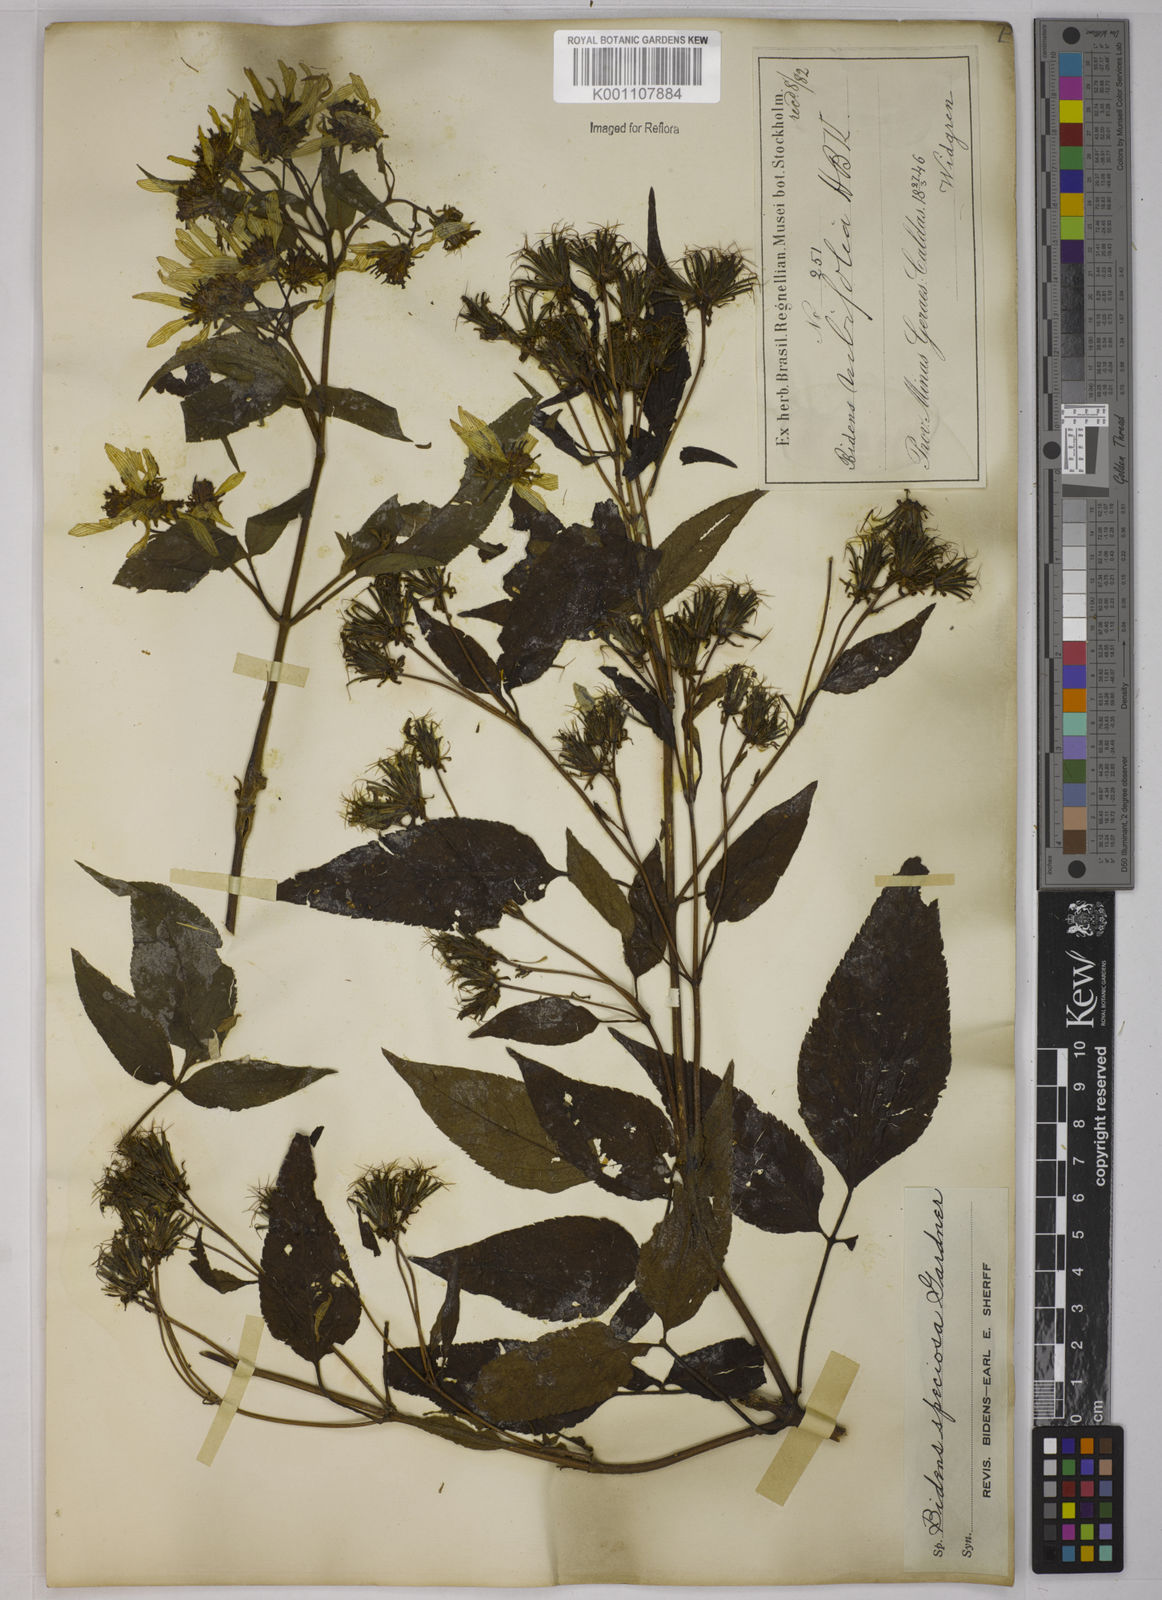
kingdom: Plantae
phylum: Tracheophyta
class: Magnoliopsida
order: Asterales
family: Asteraceae
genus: Bidens
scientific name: Bidens segetum
